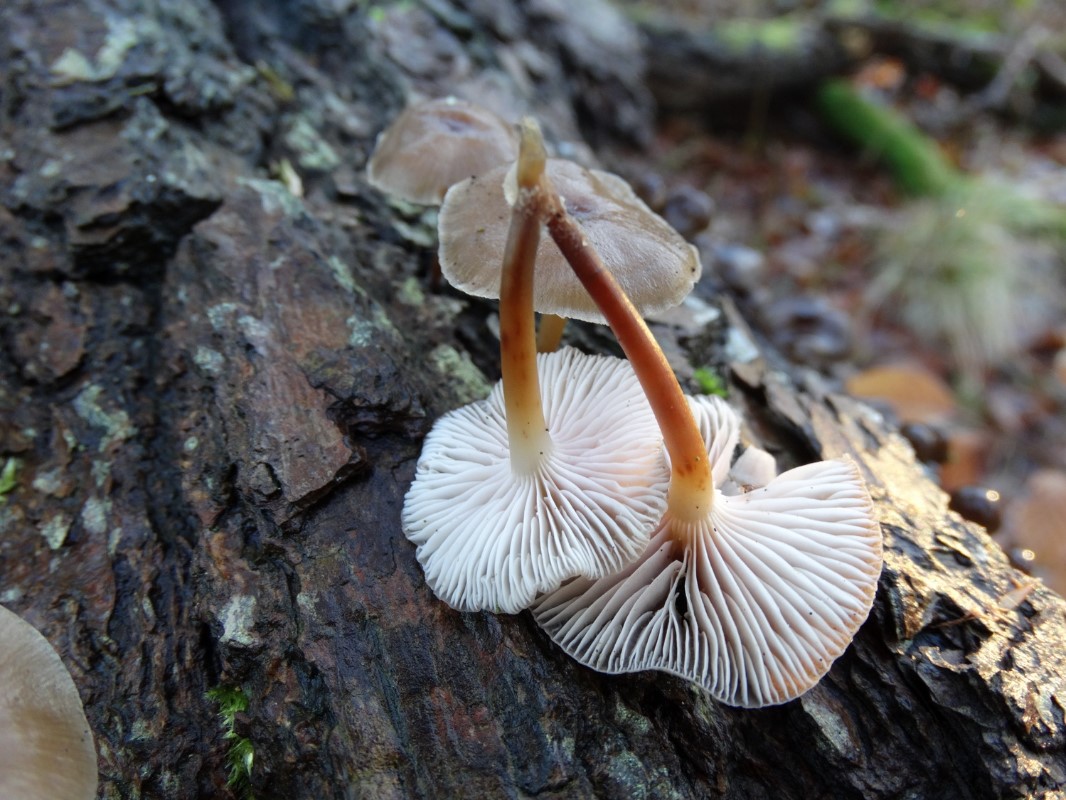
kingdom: Fungi
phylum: Basidiomycota
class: Agaricomycetes
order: Agaricales
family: Mycenaceae
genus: Mycena
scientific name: Mycena inclinata
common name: nikkende huesvamp
